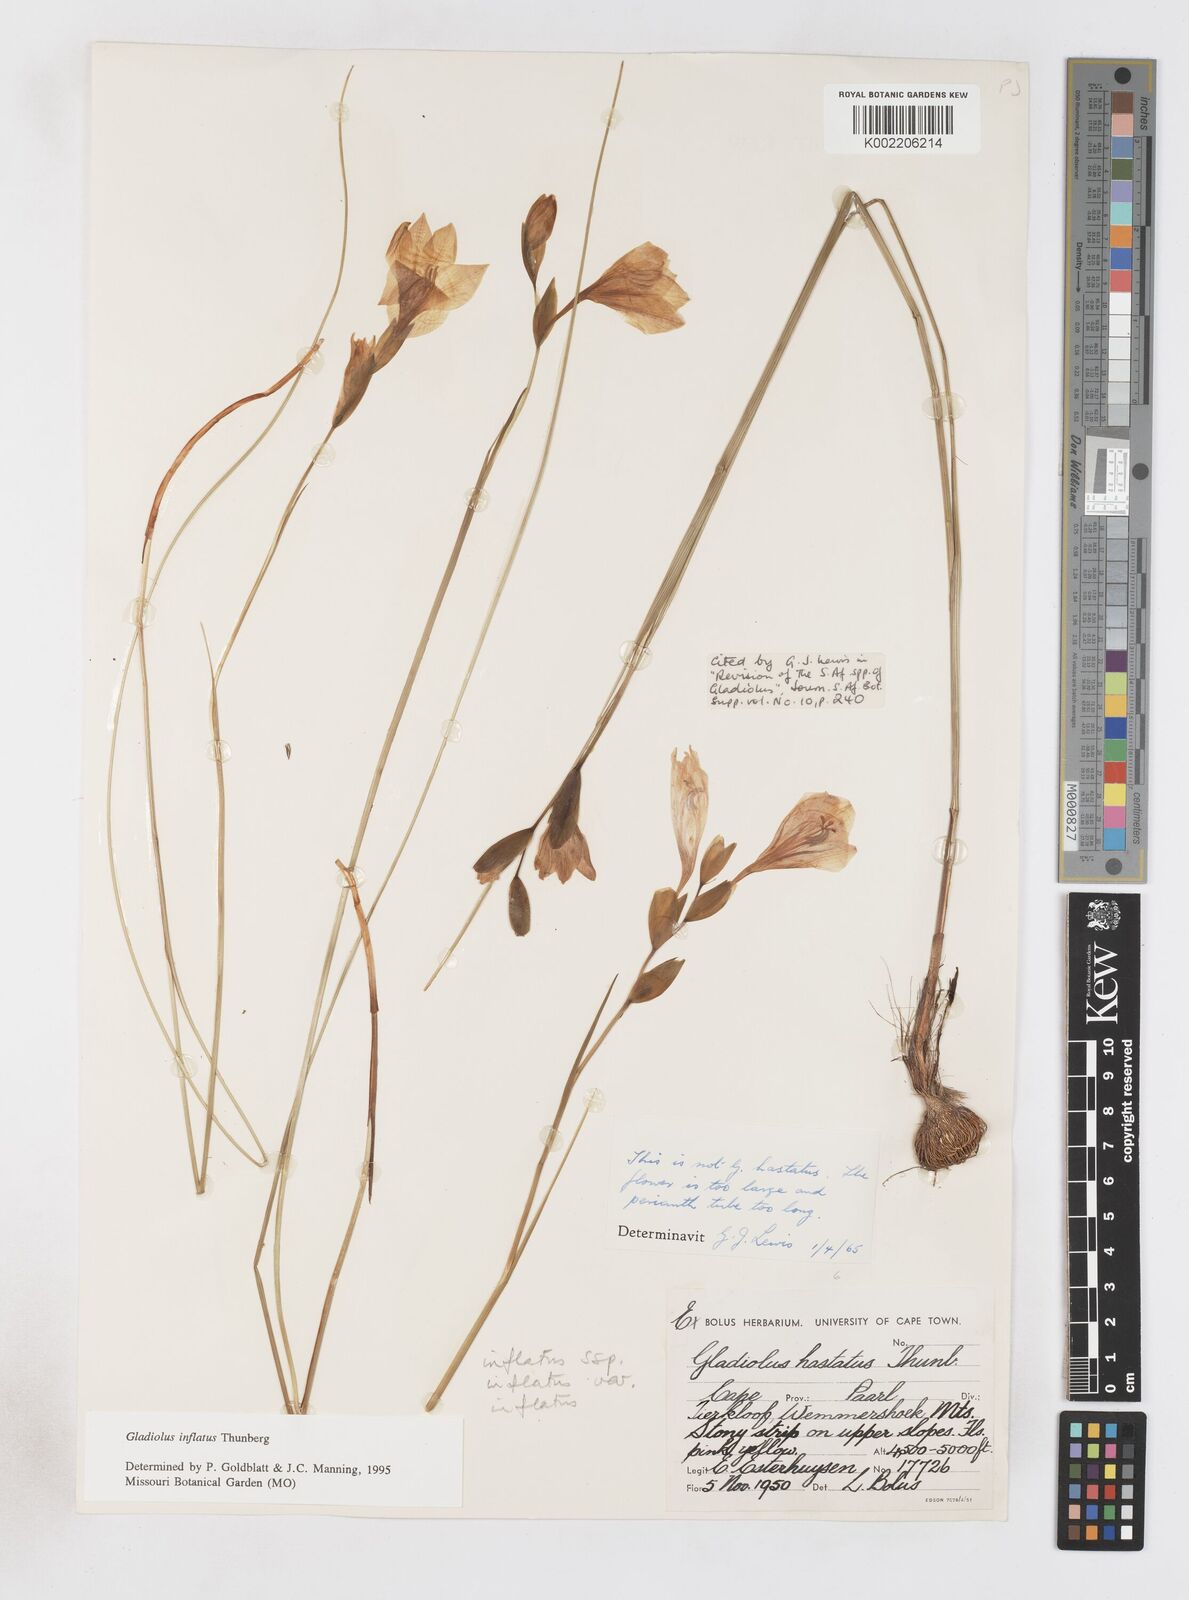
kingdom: Plantae
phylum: Tracheophyta
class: Liliopsida
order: Asparagales
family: Iridaceae
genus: Gladiolus
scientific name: Gladiolus inflatus
